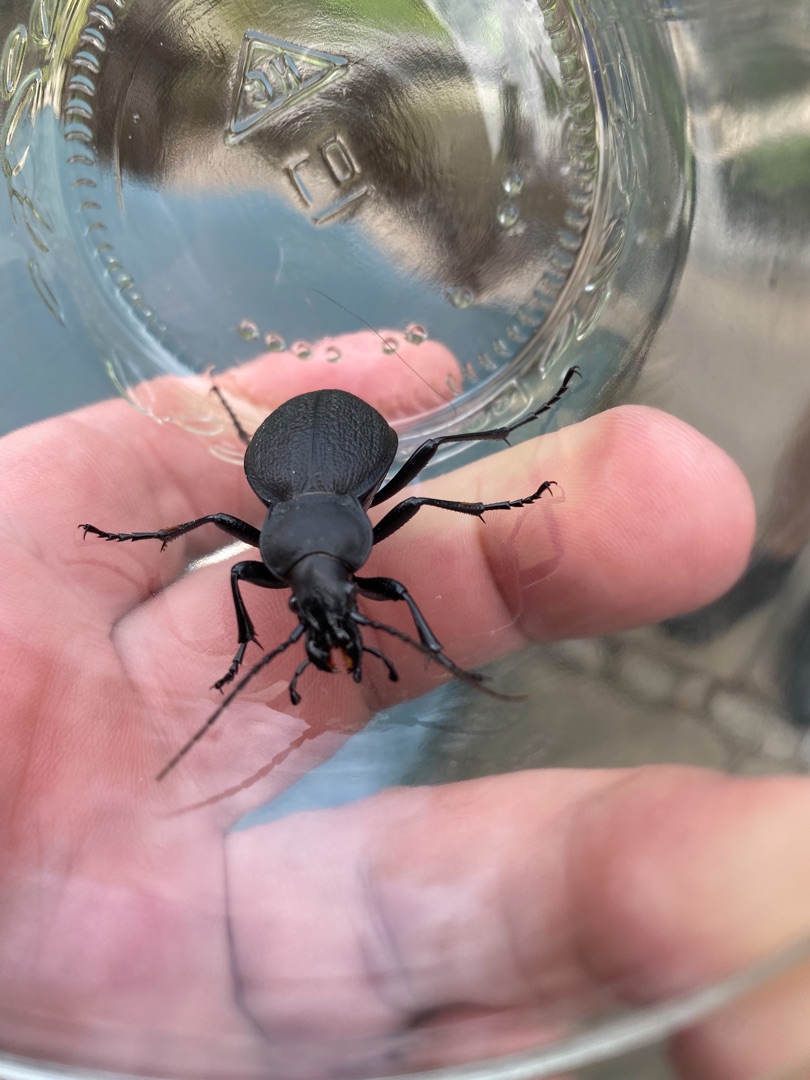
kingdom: Animalia
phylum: Arthropoda
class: Insecta
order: Coleoptera
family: Carabidae
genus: Carabus
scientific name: Carabus coriaceus
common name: Læderløber
